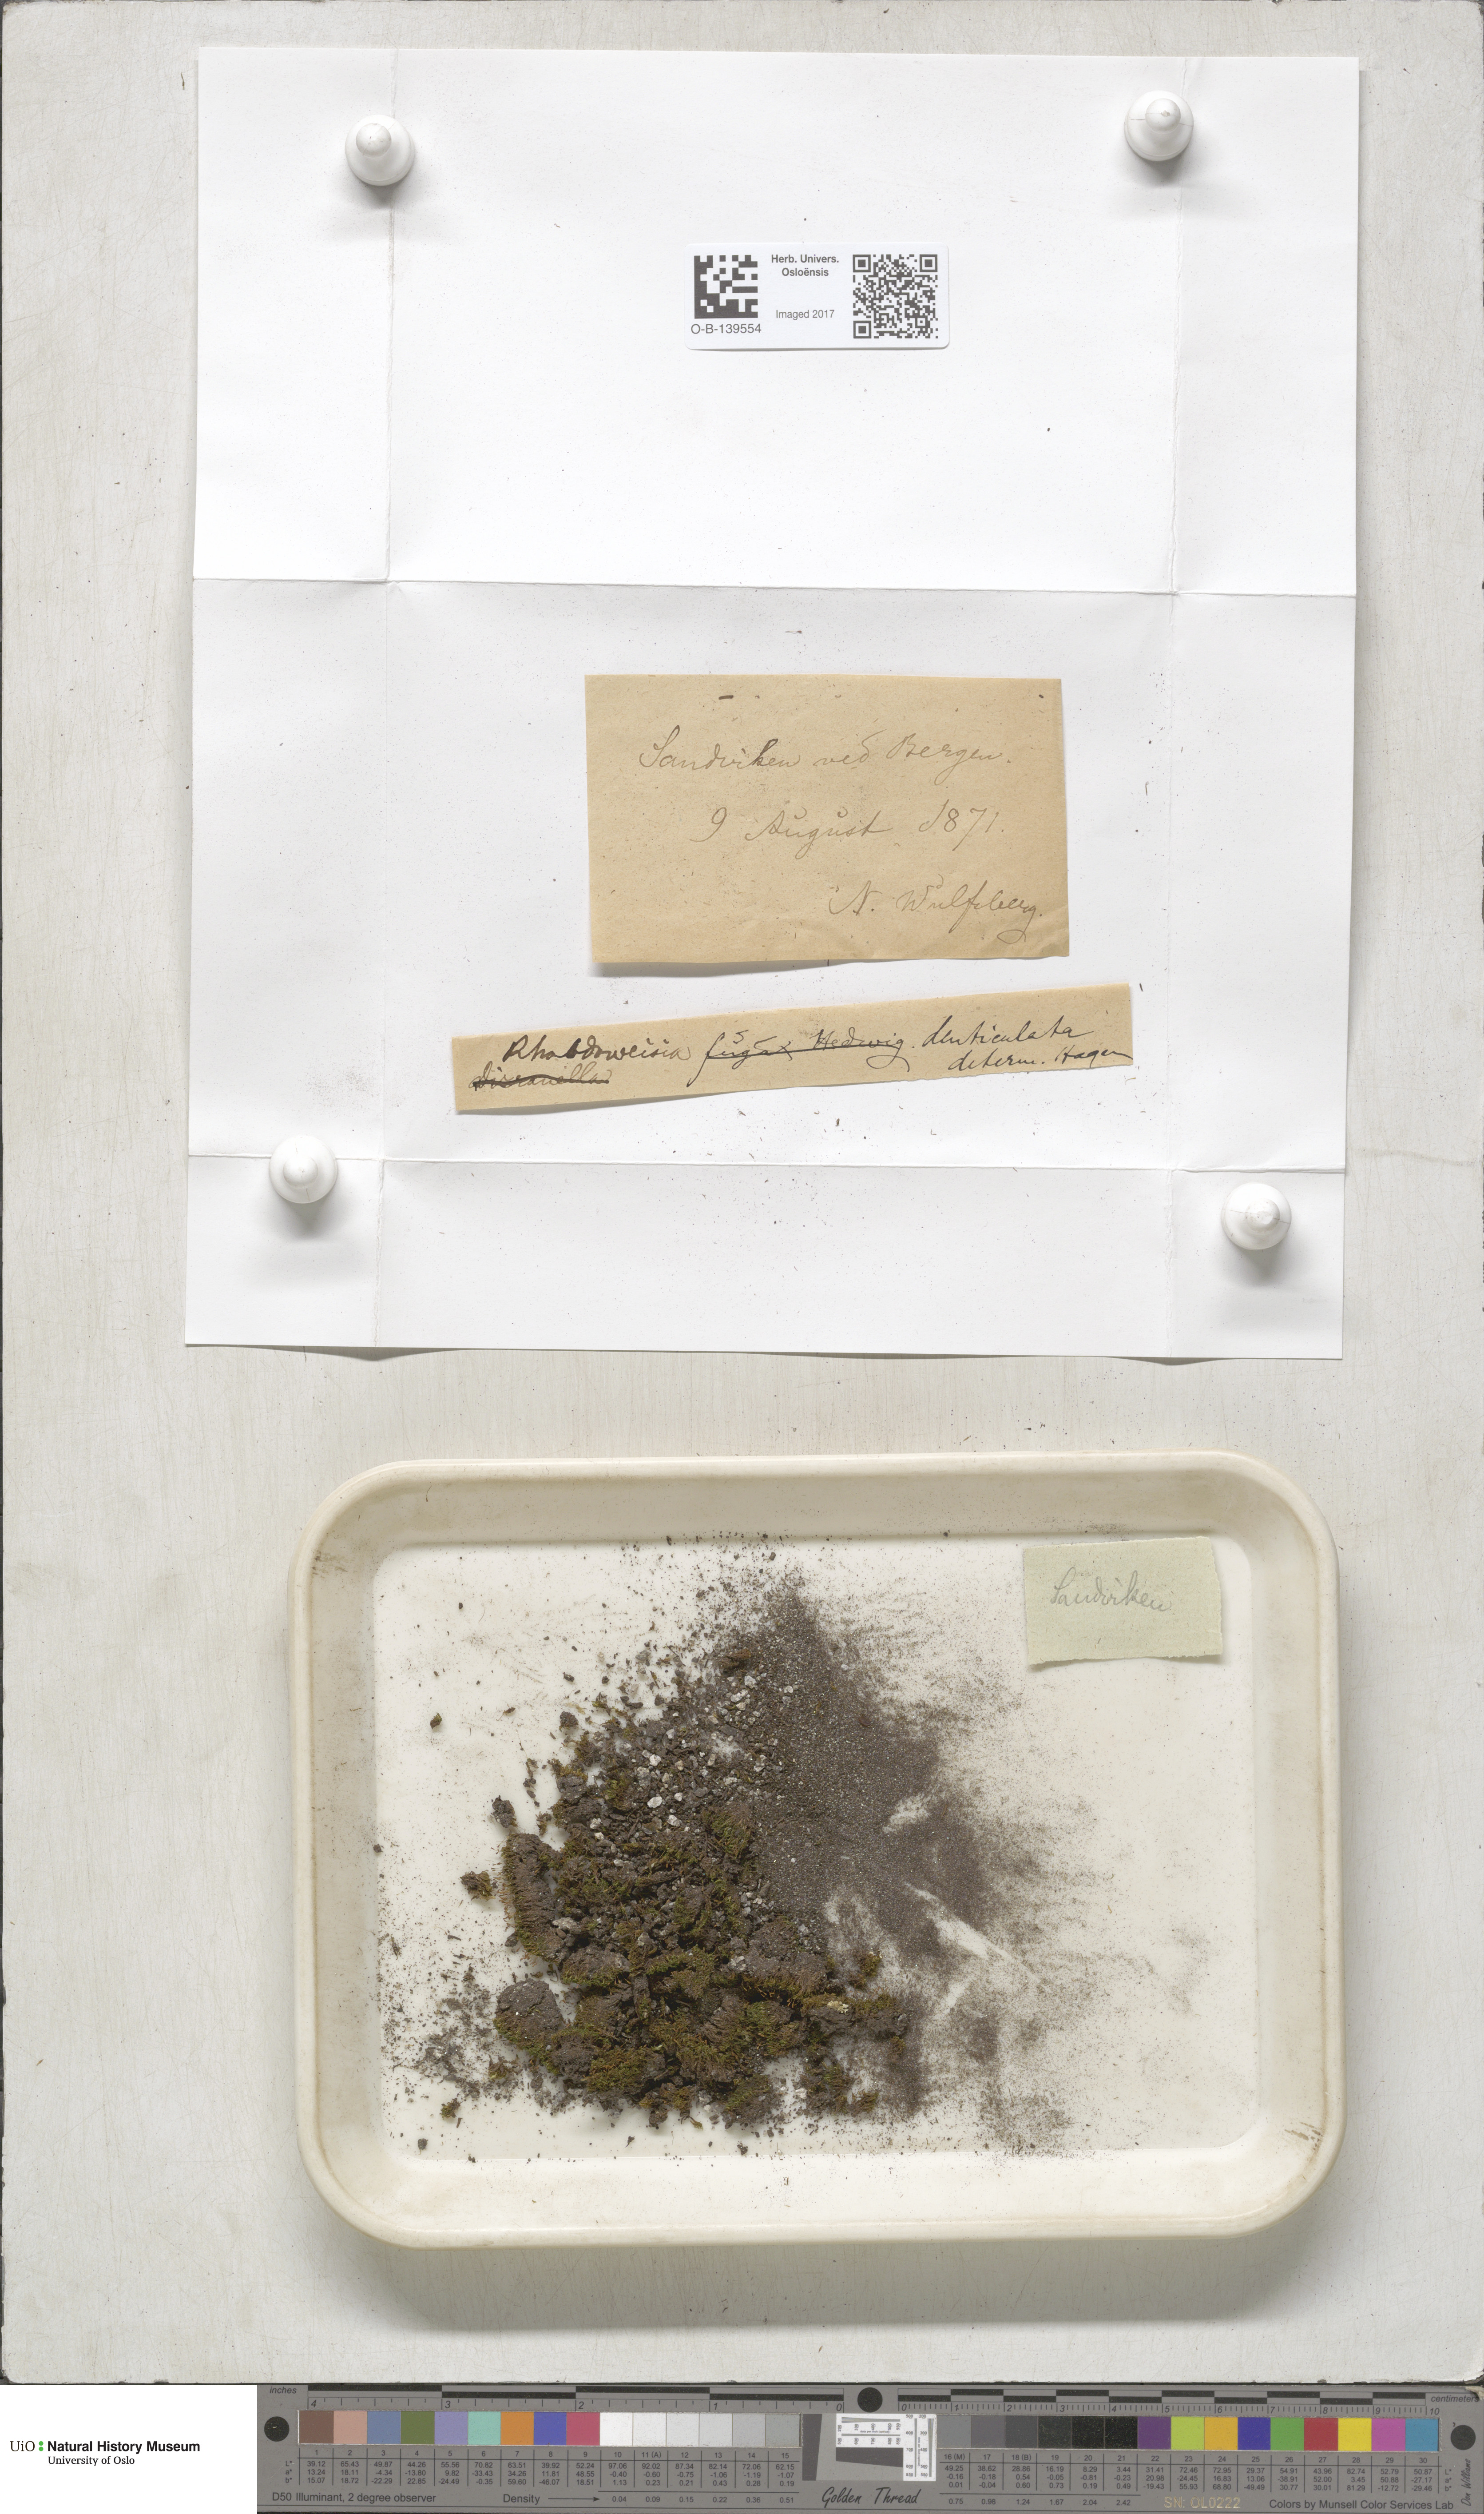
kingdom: Plantae
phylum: Bryophyta
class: Bryopsida
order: Dicranales
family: Rhabdoweisiaceae
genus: Rhabdoweisia
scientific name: Rhabdoweisia crispata
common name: Fine-toothed streak moss
